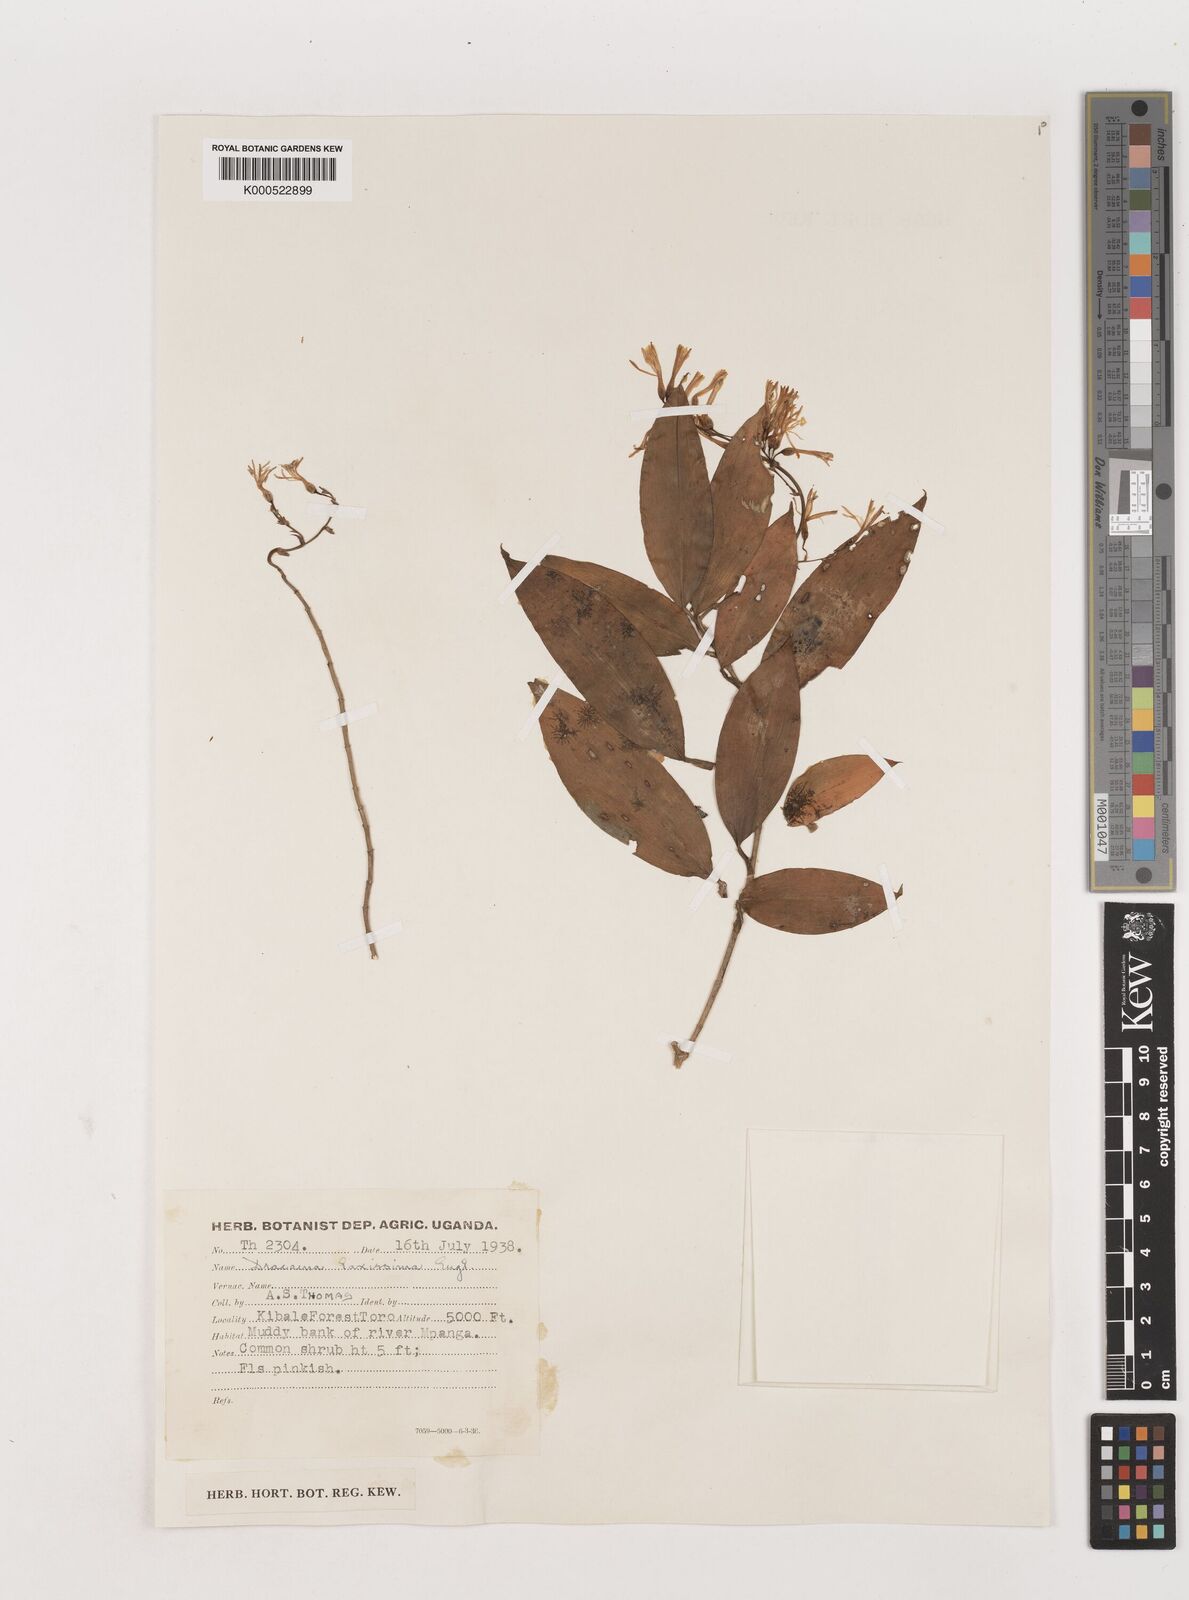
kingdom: Plantae
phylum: Tracheophyta
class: Liliopsida
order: Asparagales
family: Asparagaceae
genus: Dracaena
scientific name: Dracaena laxissima
